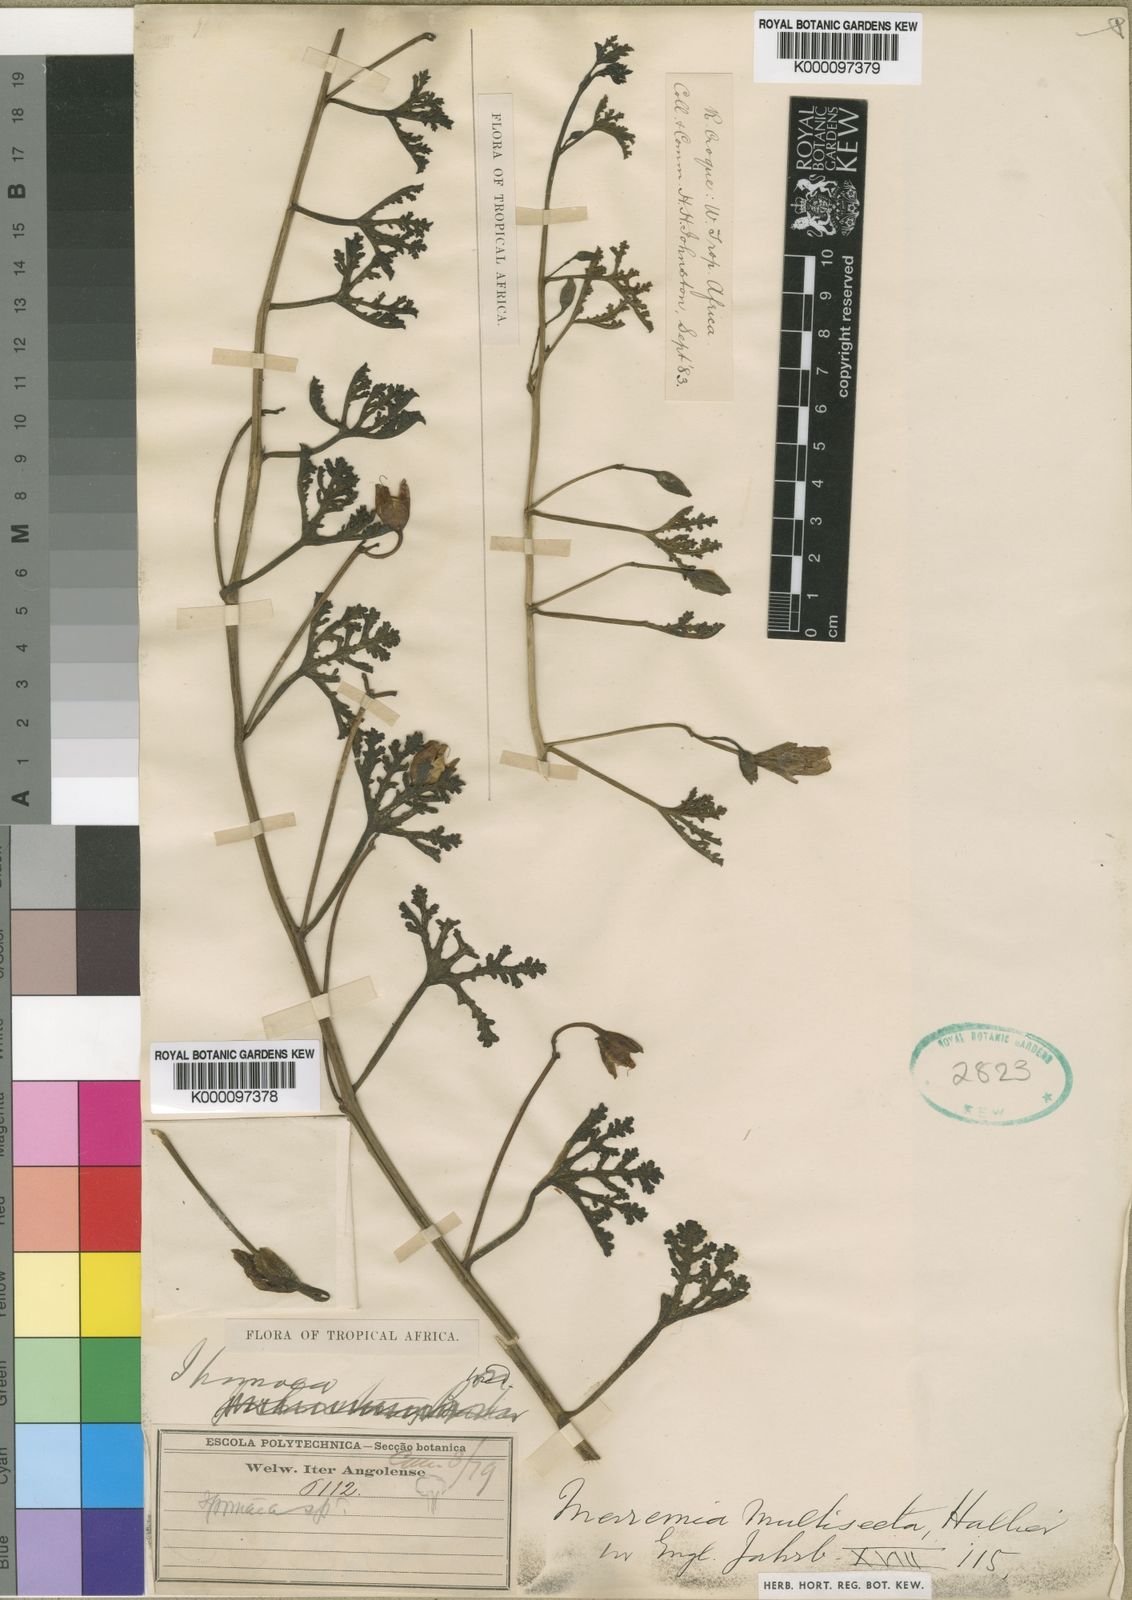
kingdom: Plantae
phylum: Tracheophyta
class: Magnoliopsida
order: Solanales
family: Convolvulaceae
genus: Distimake
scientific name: Distimake
